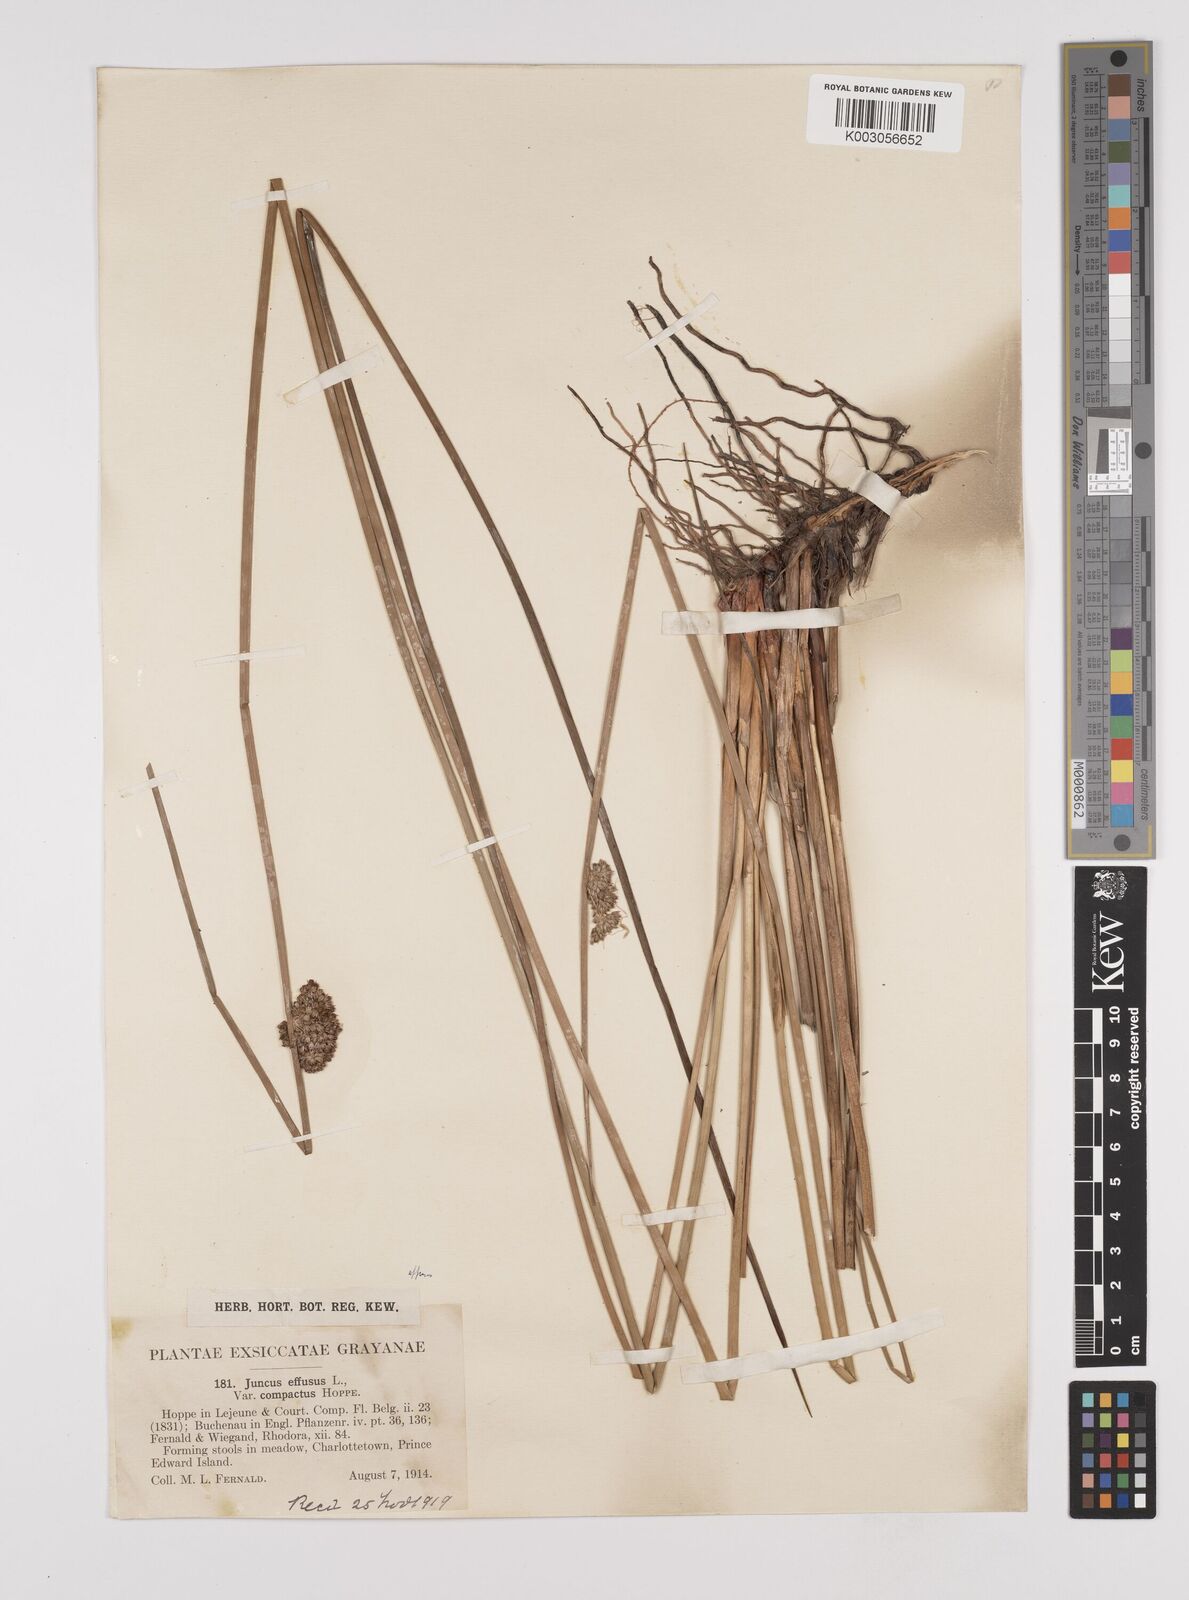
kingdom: Plantae
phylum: Tracheophyta
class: Liliopsida
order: Poales
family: Juncaceae
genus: Juncus
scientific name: Juncus effusus
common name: Soft rush
